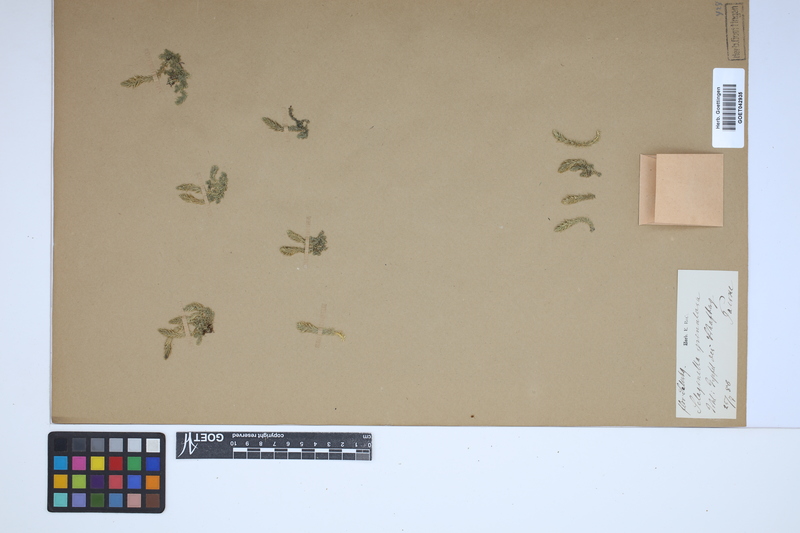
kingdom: Plantae
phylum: Tracheophyta
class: Lycopodiopsida
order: Selaginellales
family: Selaginellaceae
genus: Selaginella
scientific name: Selaginella selaginoides
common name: Prickly mountain-moss
